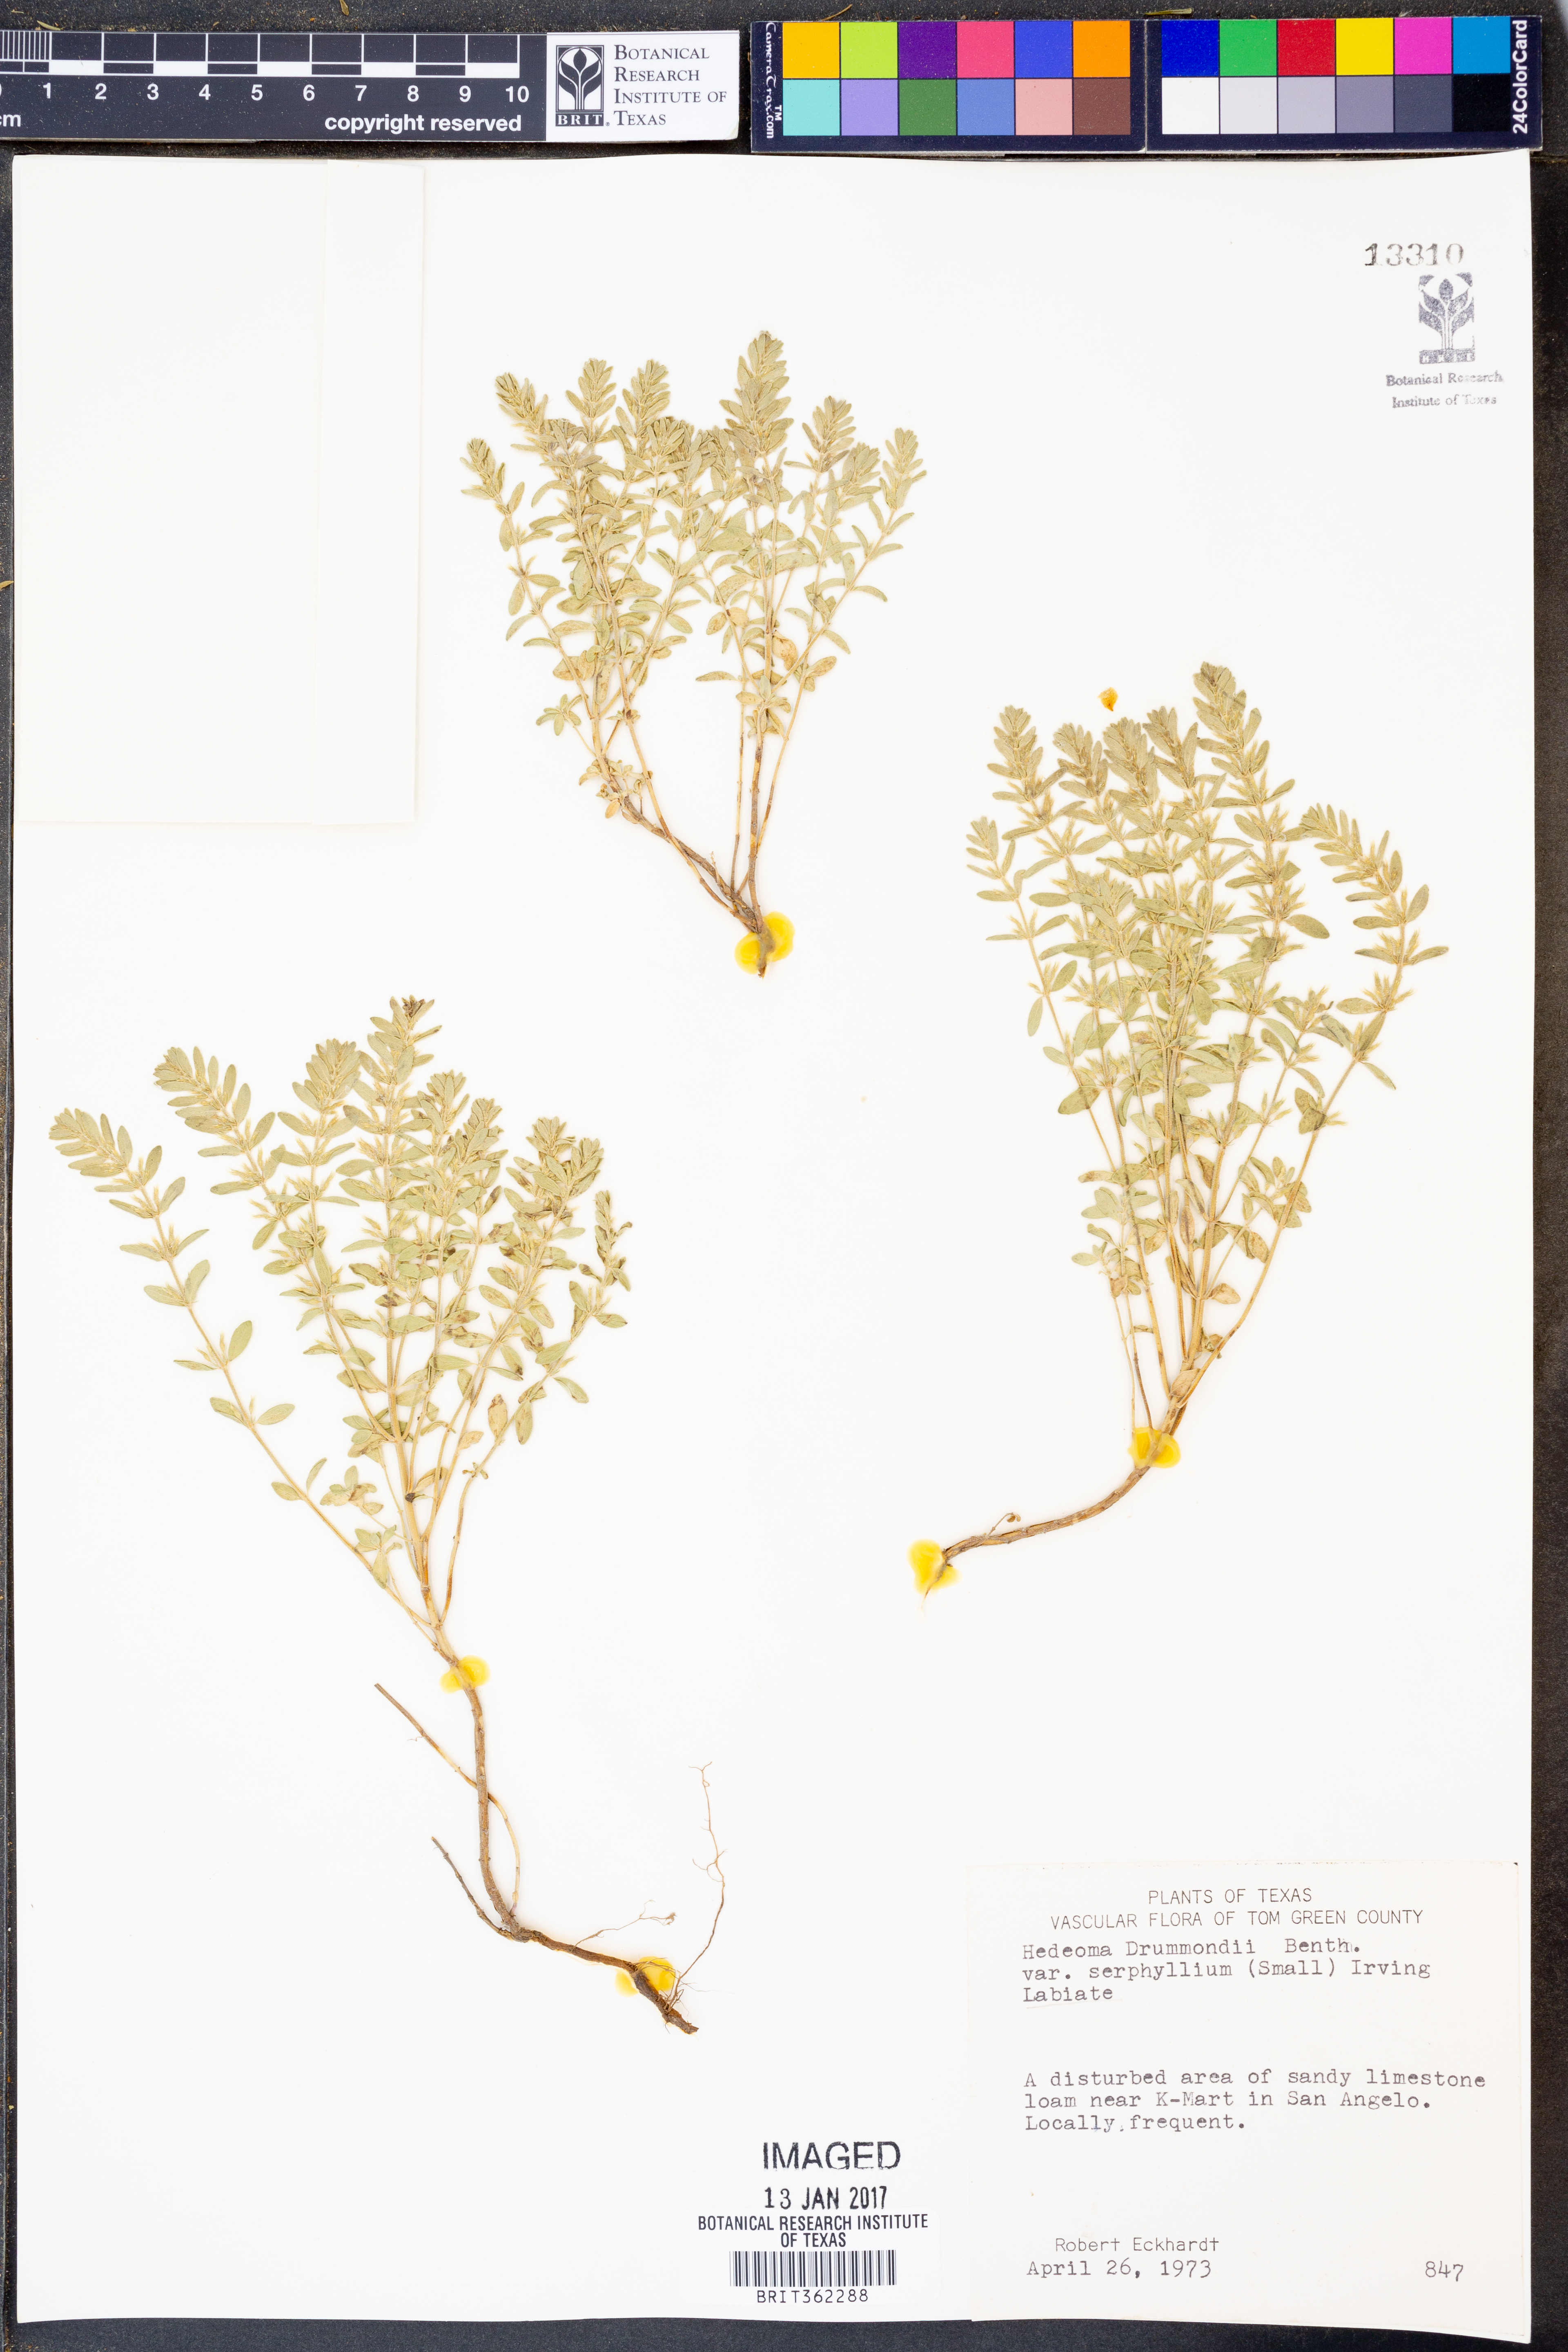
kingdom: Plantae
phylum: Tracheophyta
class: Magnoliopsida
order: Lamiales
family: Lamiaceae
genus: Hedeoma
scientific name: Hedeoma drummondii
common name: New mexico pennyroyal
